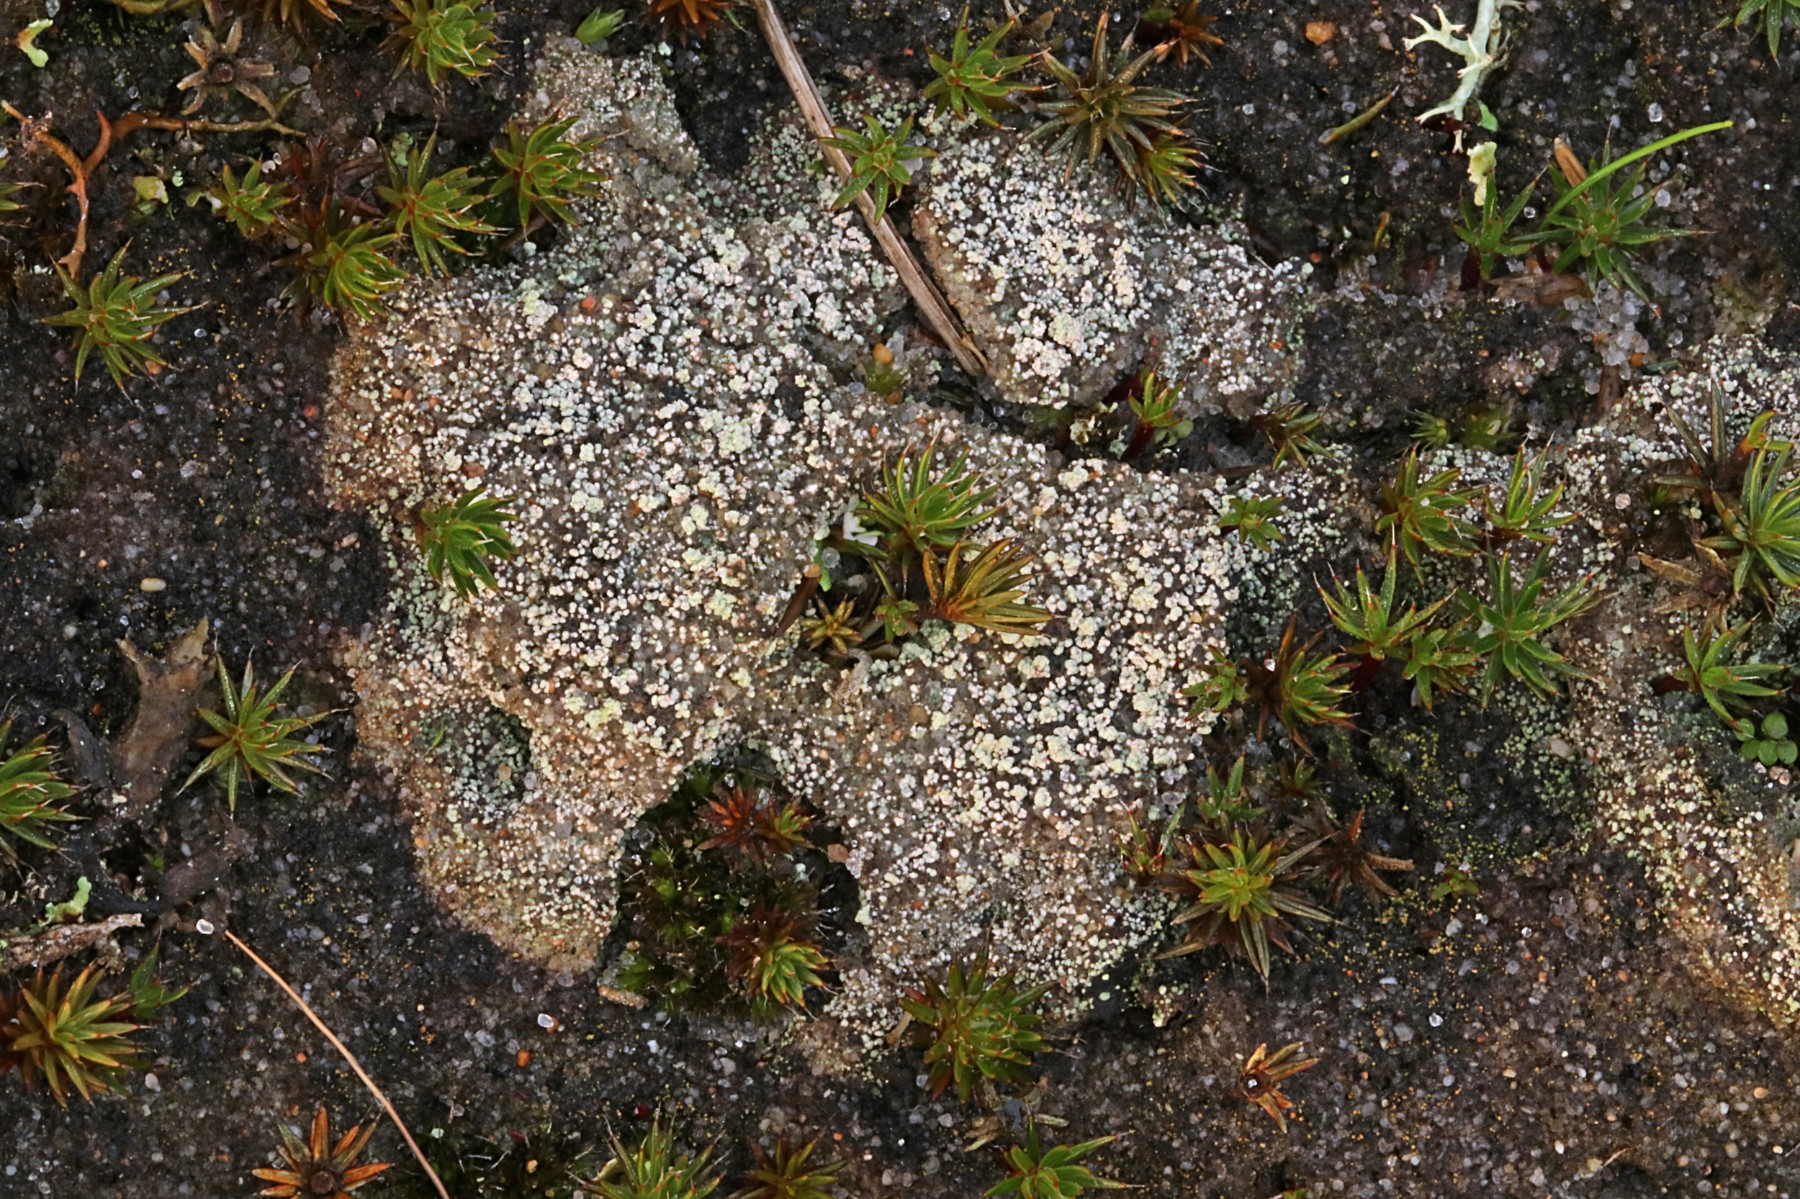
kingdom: Fungi
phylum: Ascomycota
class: Lecanoromycetes
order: Baeomycetales
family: Trapeliaceae
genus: Trapeliopsis
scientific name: Trapeliopsis granulosa
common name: forskelligfarvet skivelav
